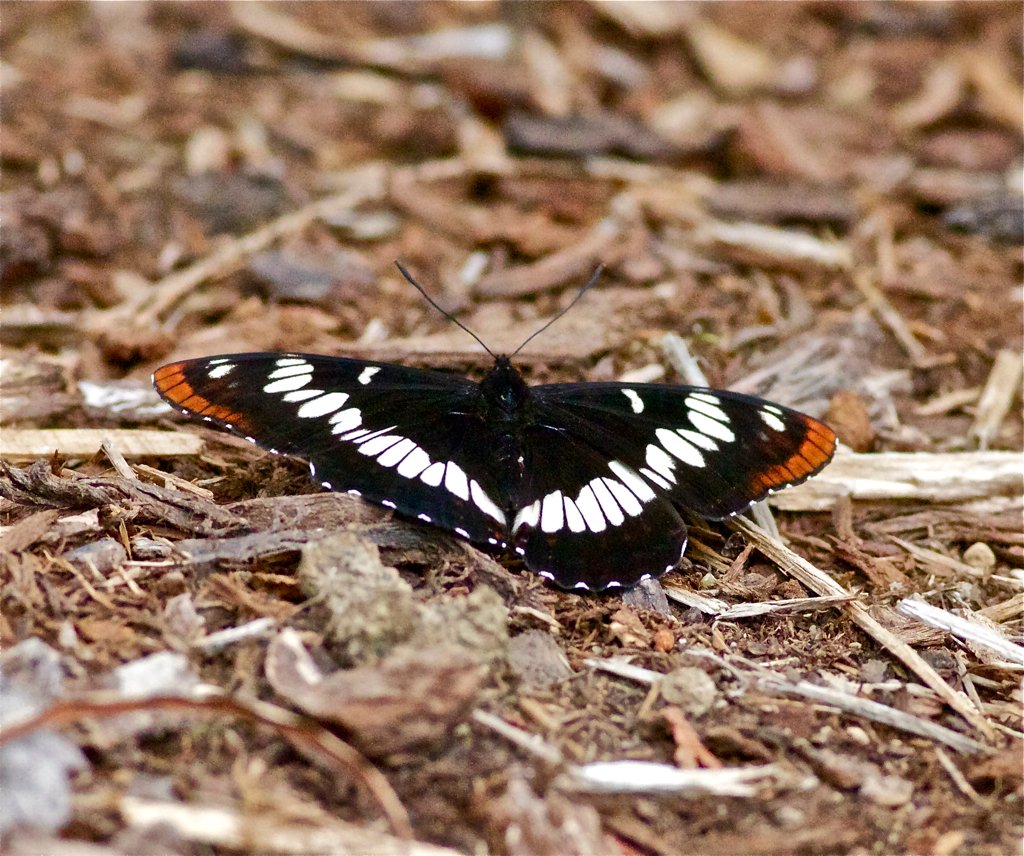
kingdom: Animalia
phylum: Arthropoda
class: Insecta
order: Lepidoptera
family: Nymphalidae
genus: Limenitis
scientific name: Limenitis lorquini
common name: Lorquin's Admiral
